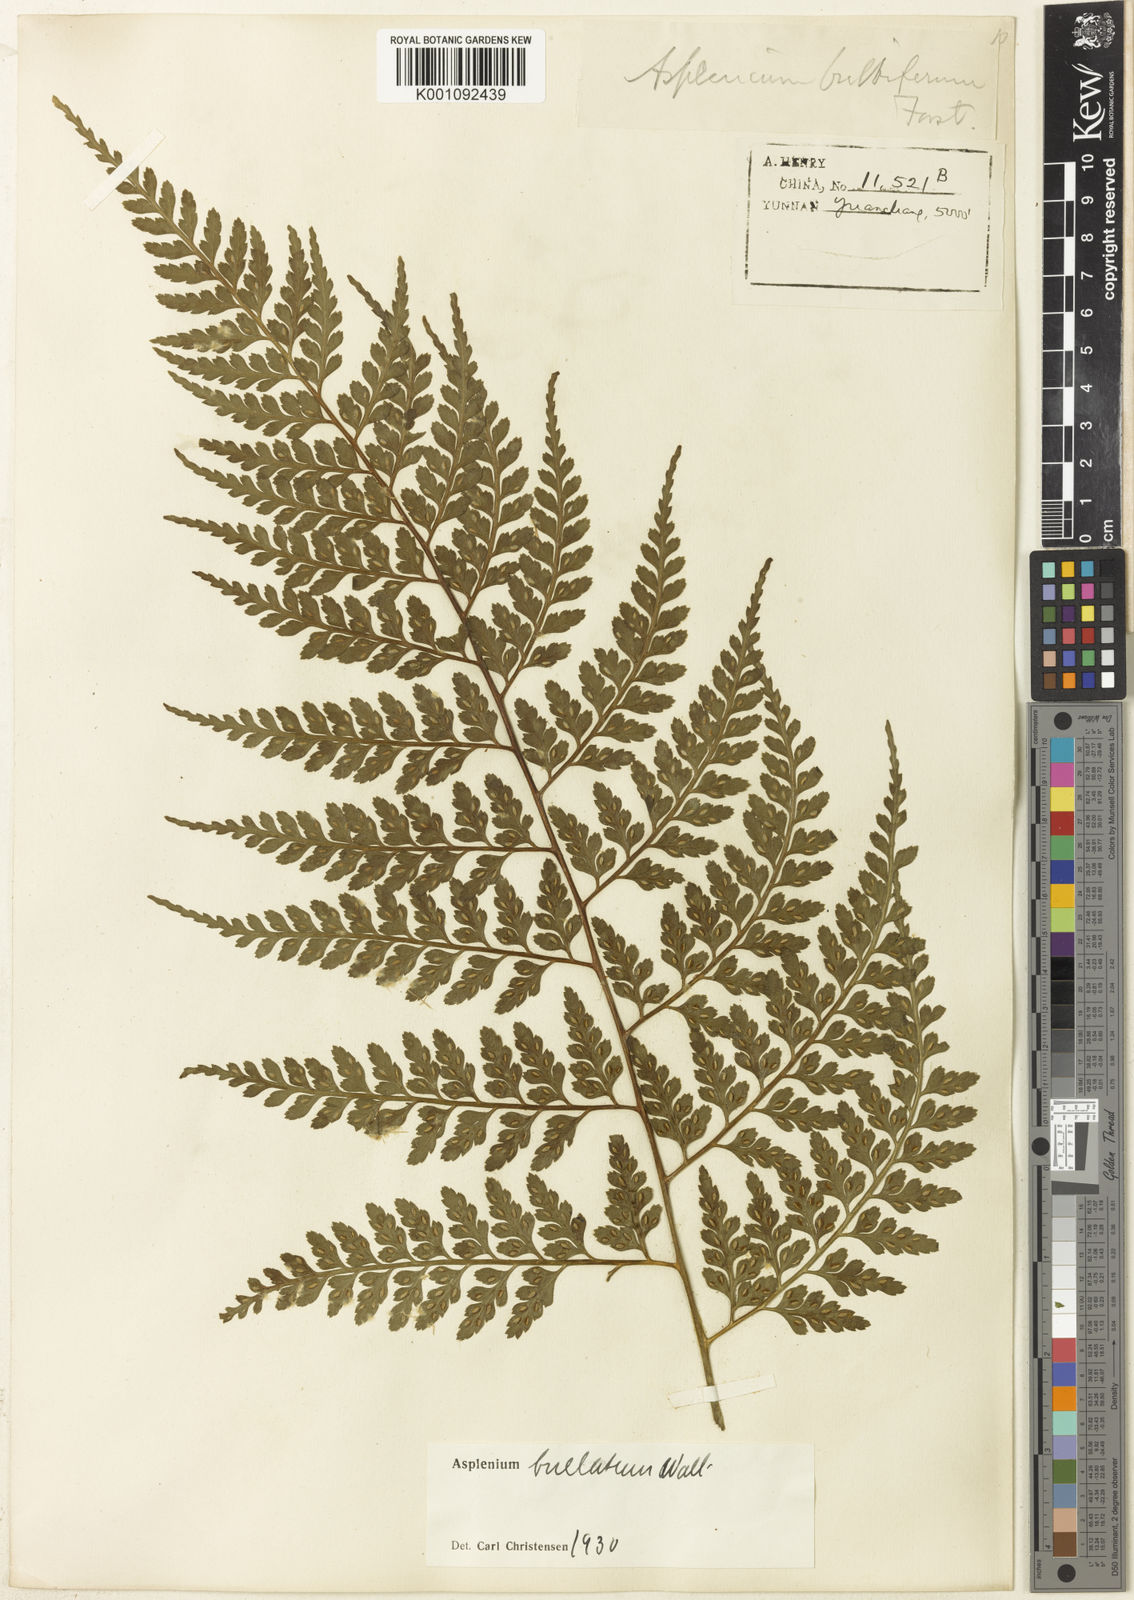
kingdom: Plantae
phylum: Tracheophyta
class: Polypodiopsida
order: Polypodiales
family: Aspleniaceae
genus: Asplenium
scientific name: Asplenium bullatum
